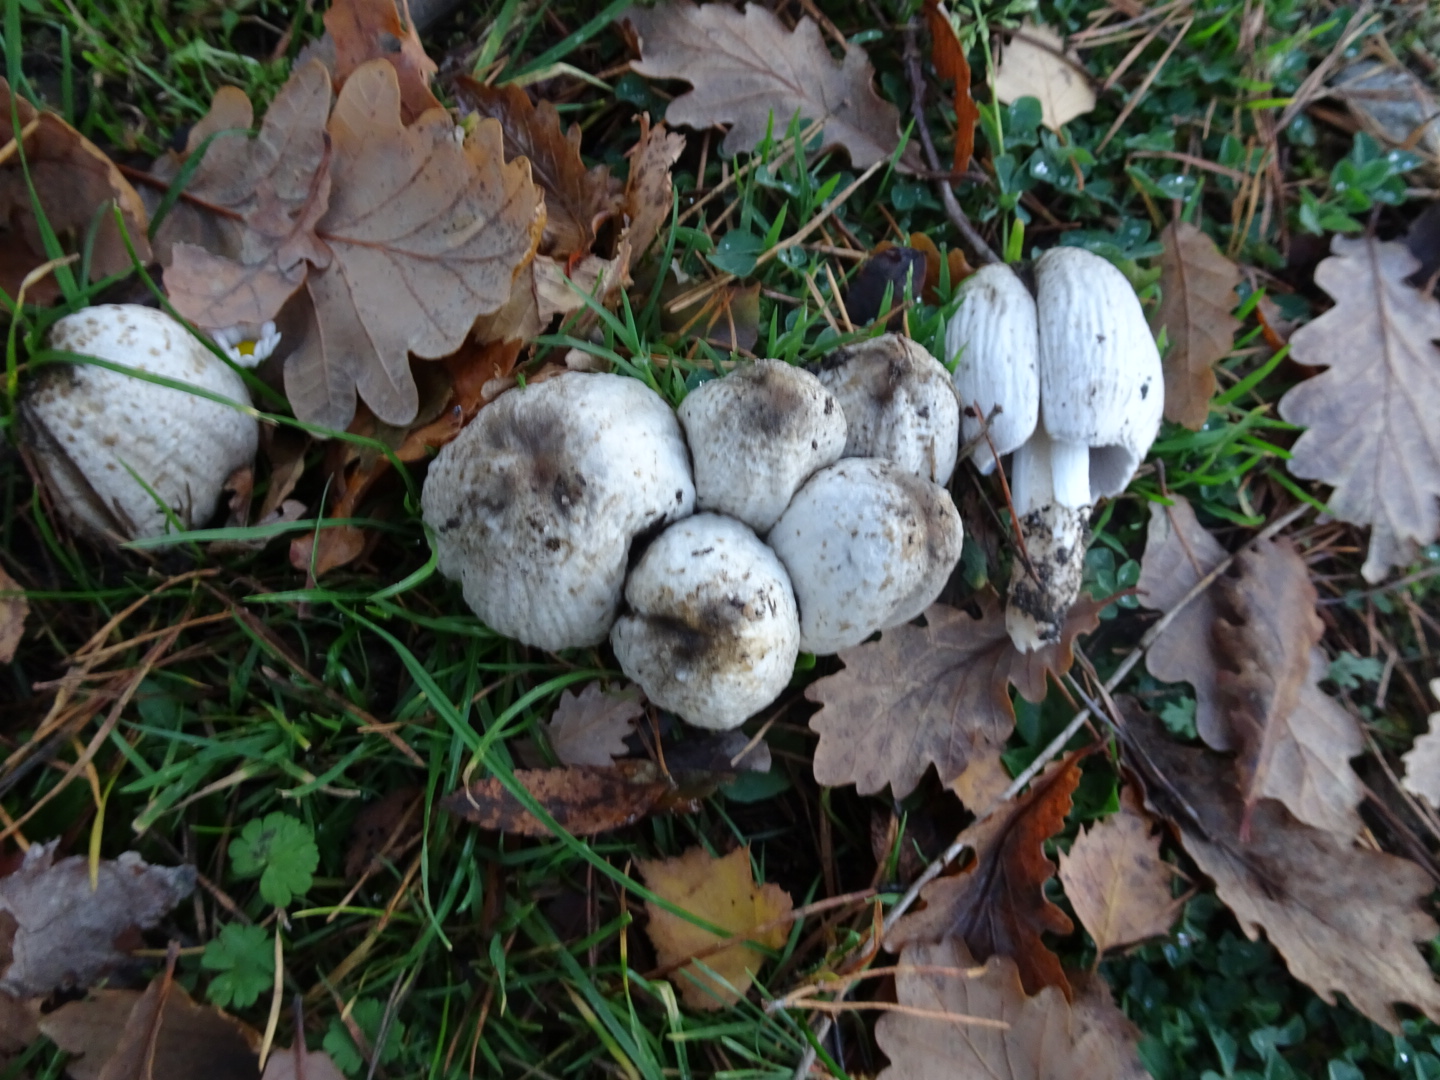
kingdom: Fungi
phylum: Basidiomycota
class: Agaricomycetes
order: Agaricales
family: Psathyrellaceae
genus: Coprinopsis
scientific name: Coprinopsis atramentaria
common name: almindelig blækhat
